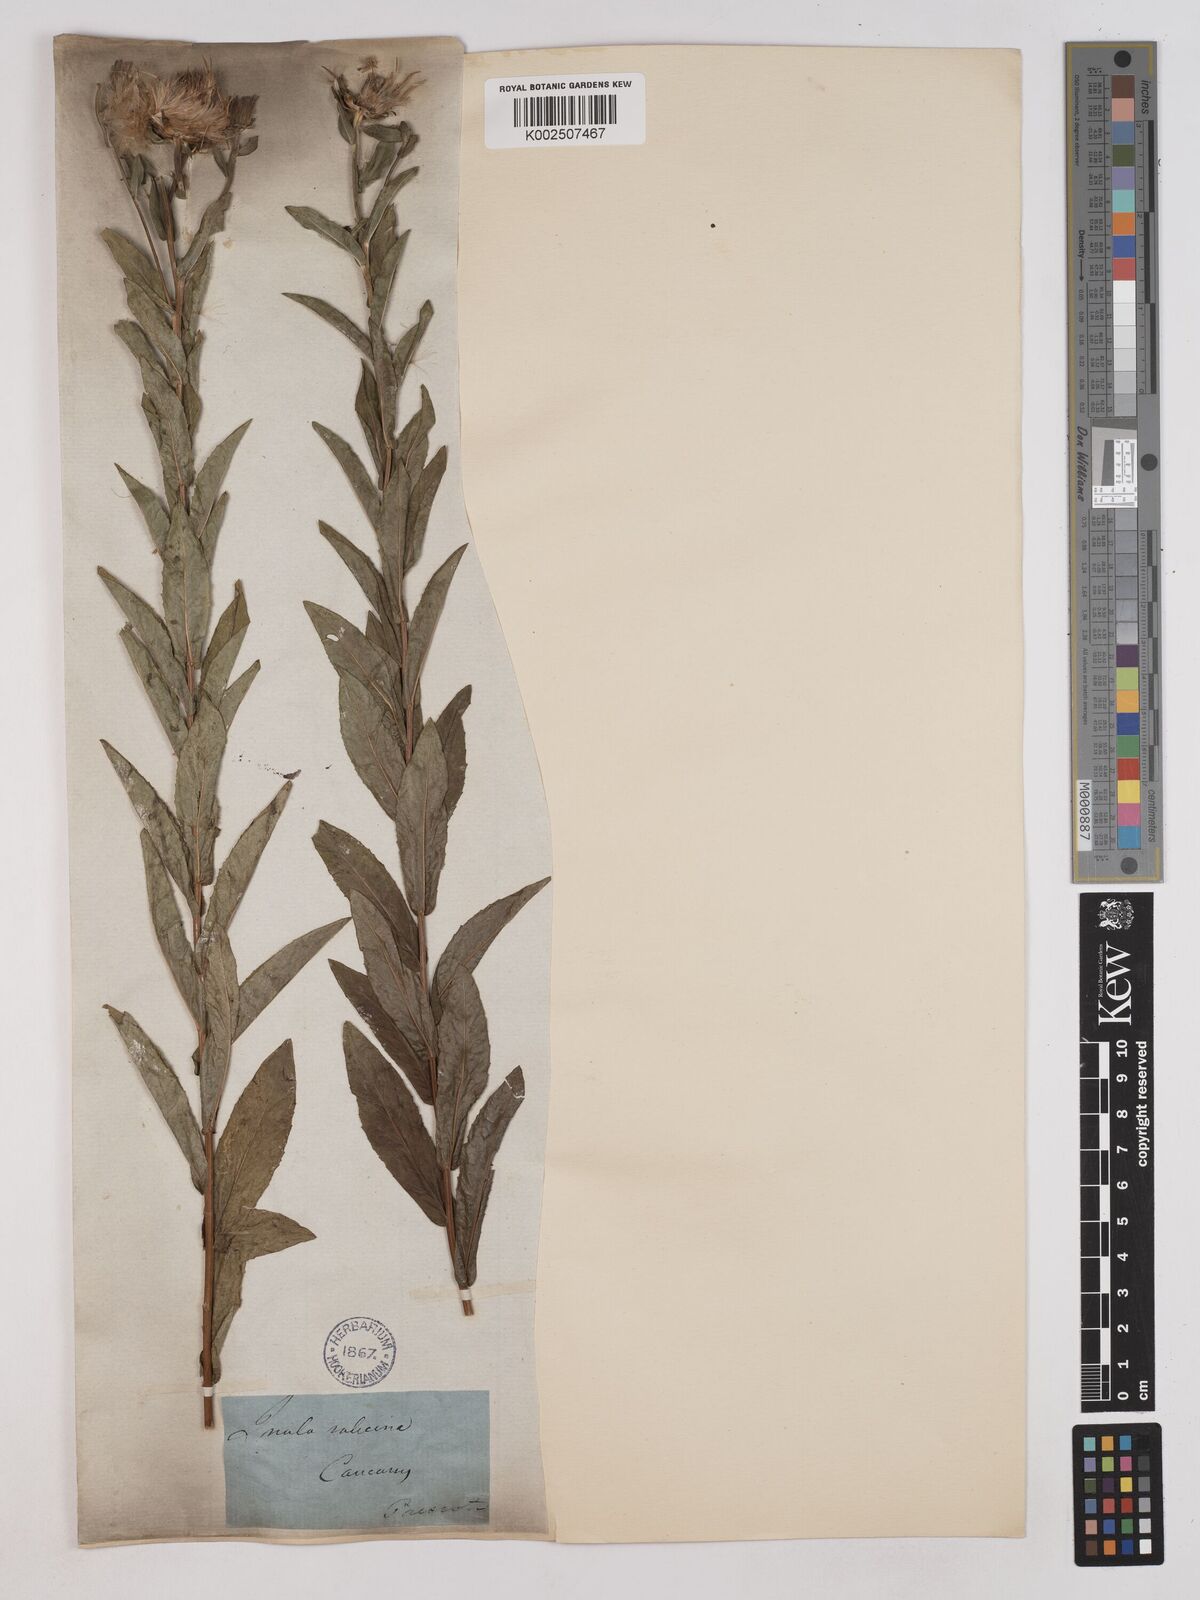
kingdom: Plantae
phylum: Tracheophyta
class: Magnoliopsida
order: Asterales
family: Asteraceae
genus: Pentanema
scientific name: Pentanema salicinum
